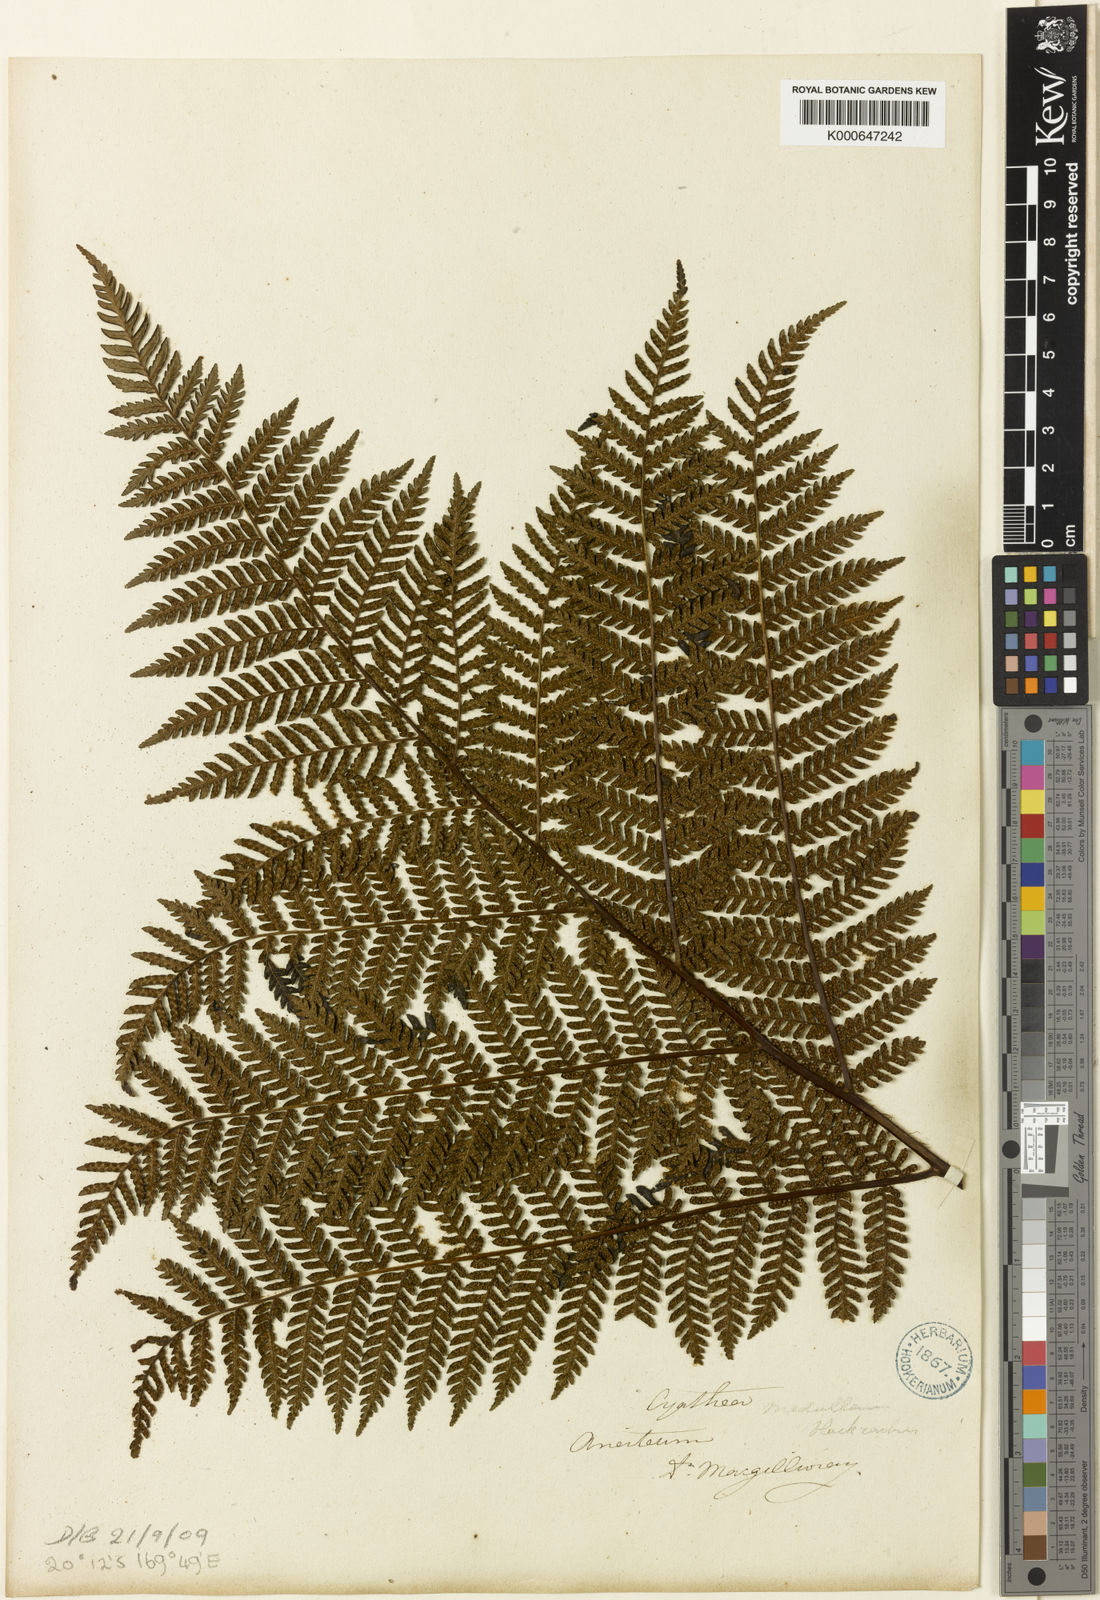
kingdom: Plantae
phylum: Tracheophyta
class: Polypodiopsida
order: Cyatheales
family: Cyatheaceae
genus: Alsophila
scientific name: Alsophila aneitensis
